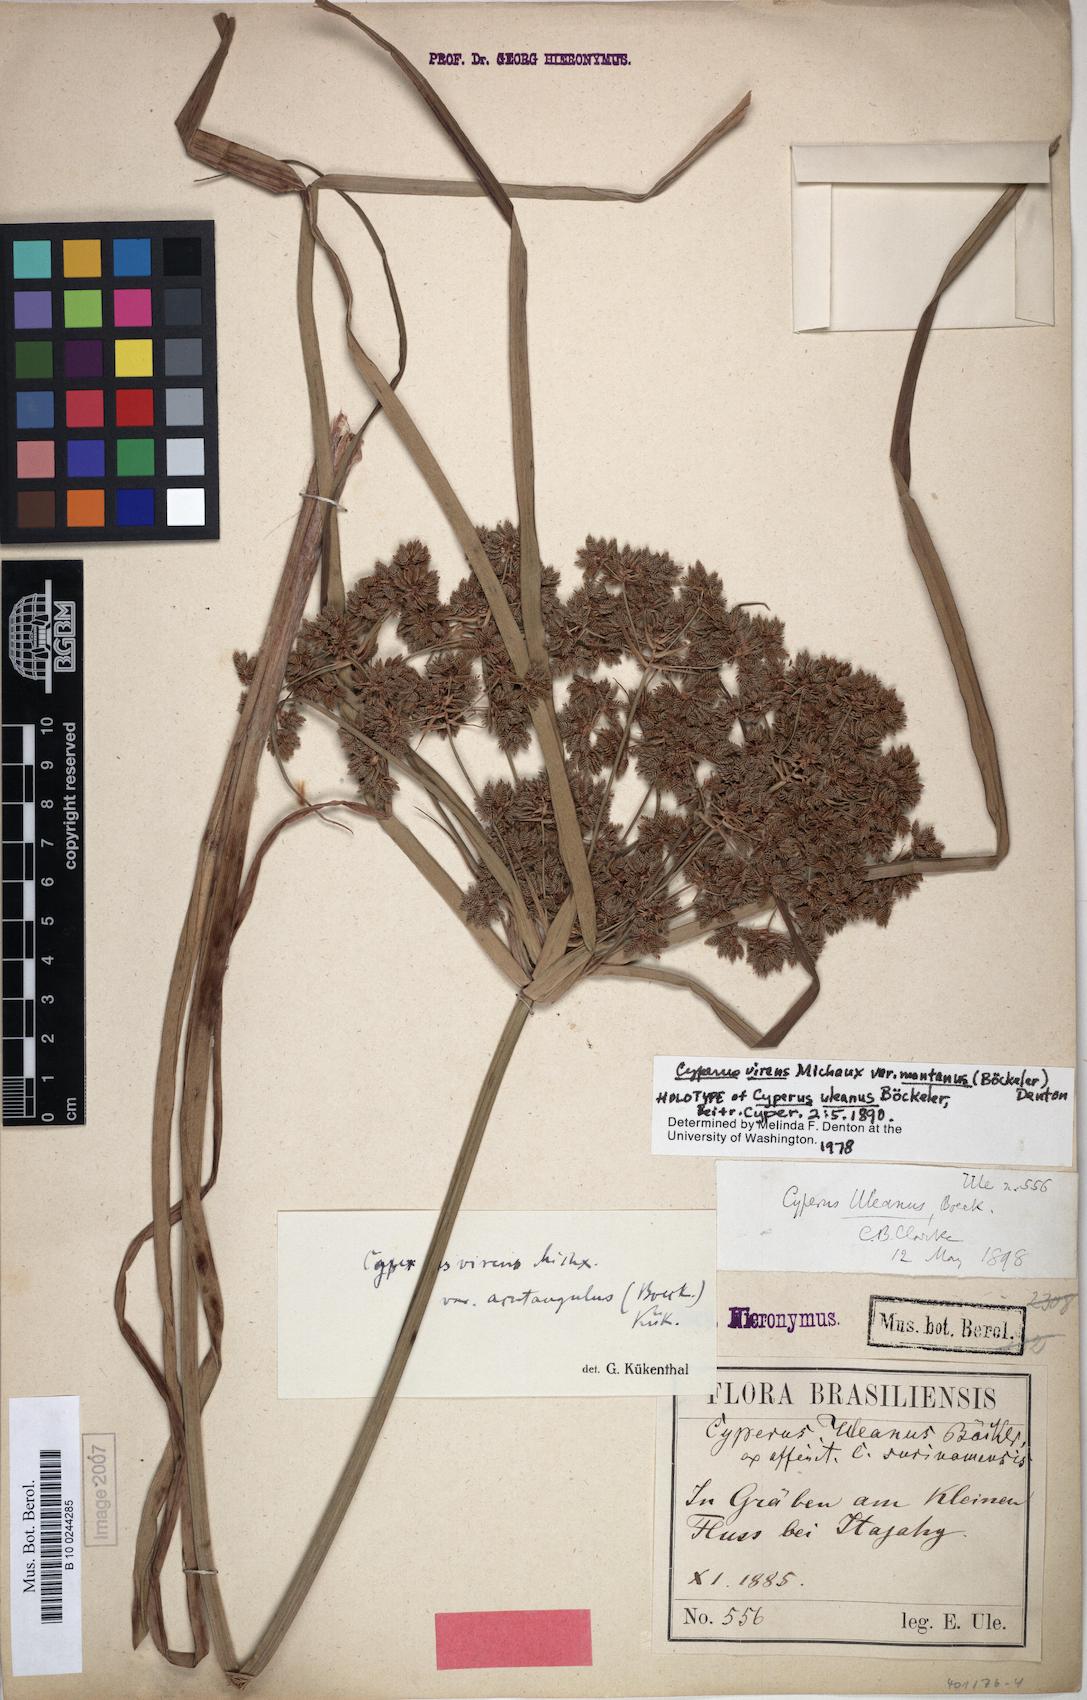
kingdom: Plantae
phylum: Tracheophyta
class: Liliopsida
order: Poales
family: Cyperaceae
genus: Cyperus
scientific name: Cyperus virens
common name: Green flatsedge
